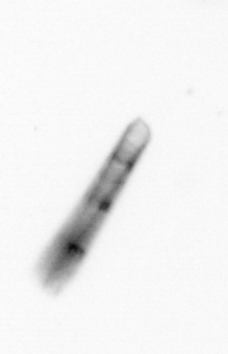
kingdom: Chromista
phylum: Ochrophyta
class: Bacillariophyceae
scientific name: Bacillariophyceae
